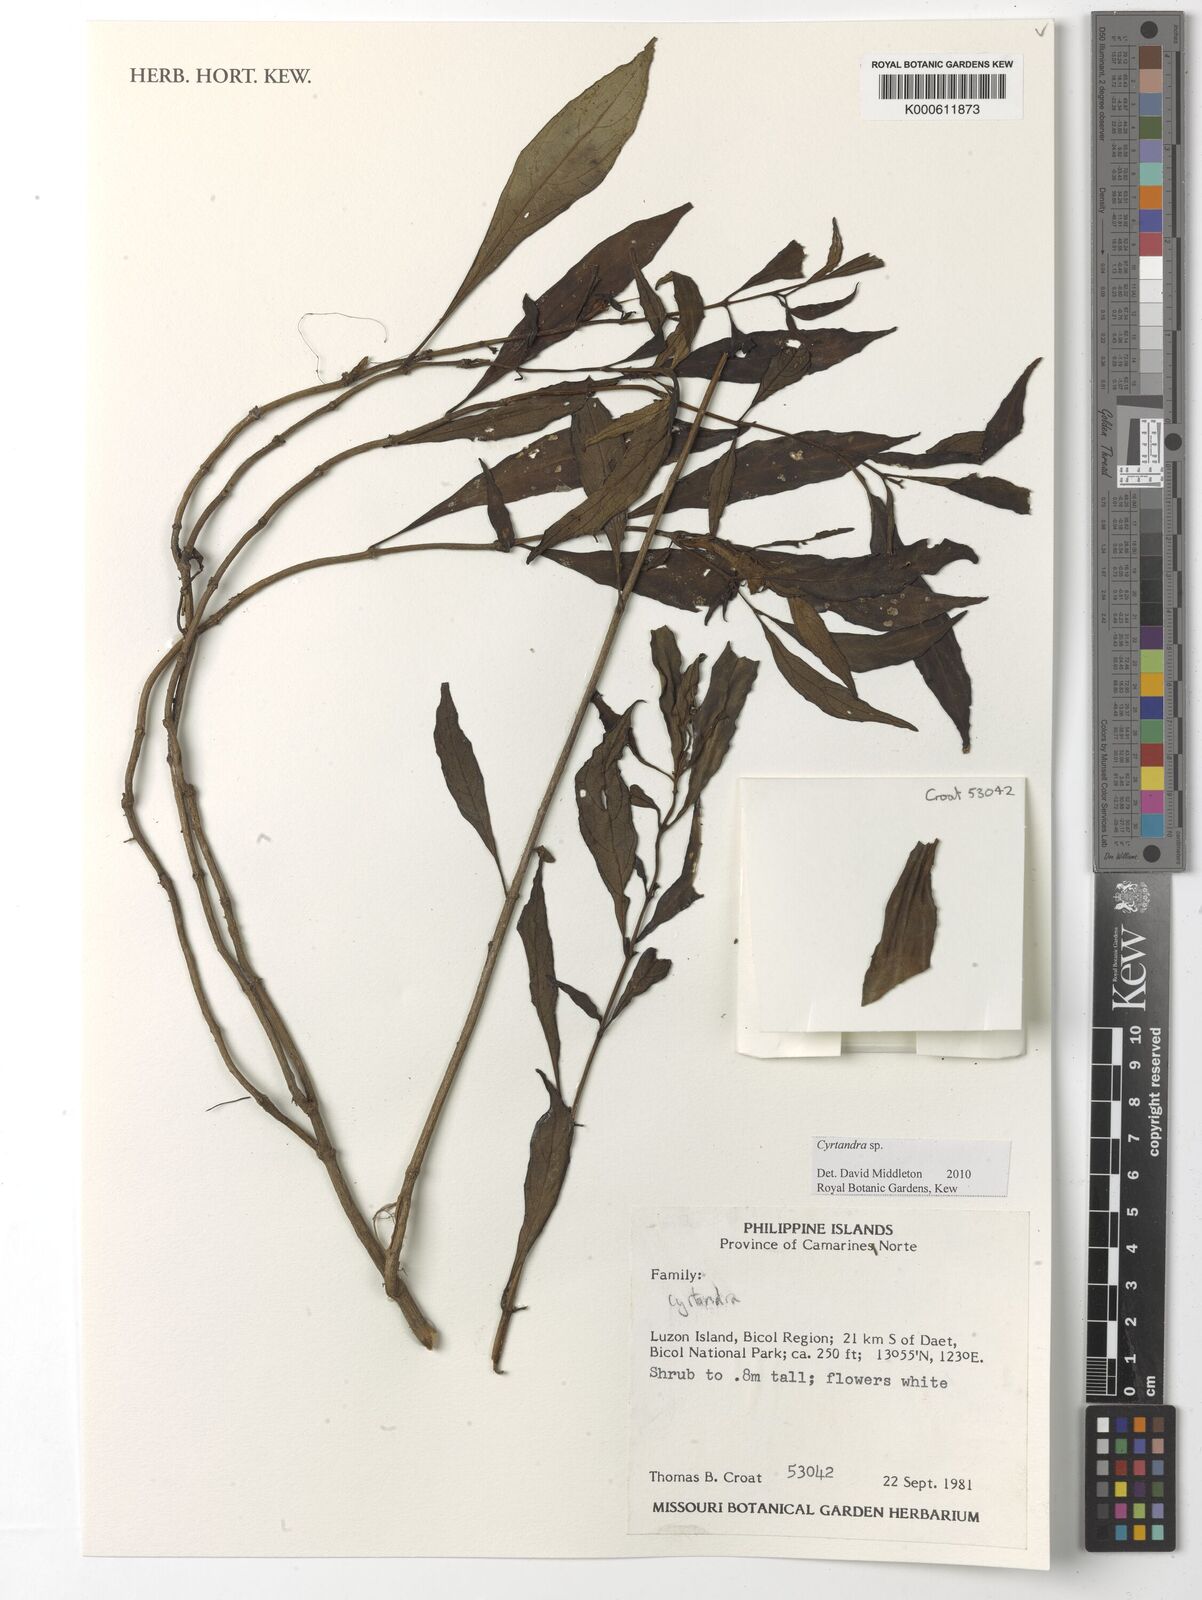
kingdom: Plantae
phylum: Tracheophyta
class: Magnoliopsida
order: Lamiales
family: Gesneriaceae
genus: Cyrtandra
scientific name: Cyrtandra
